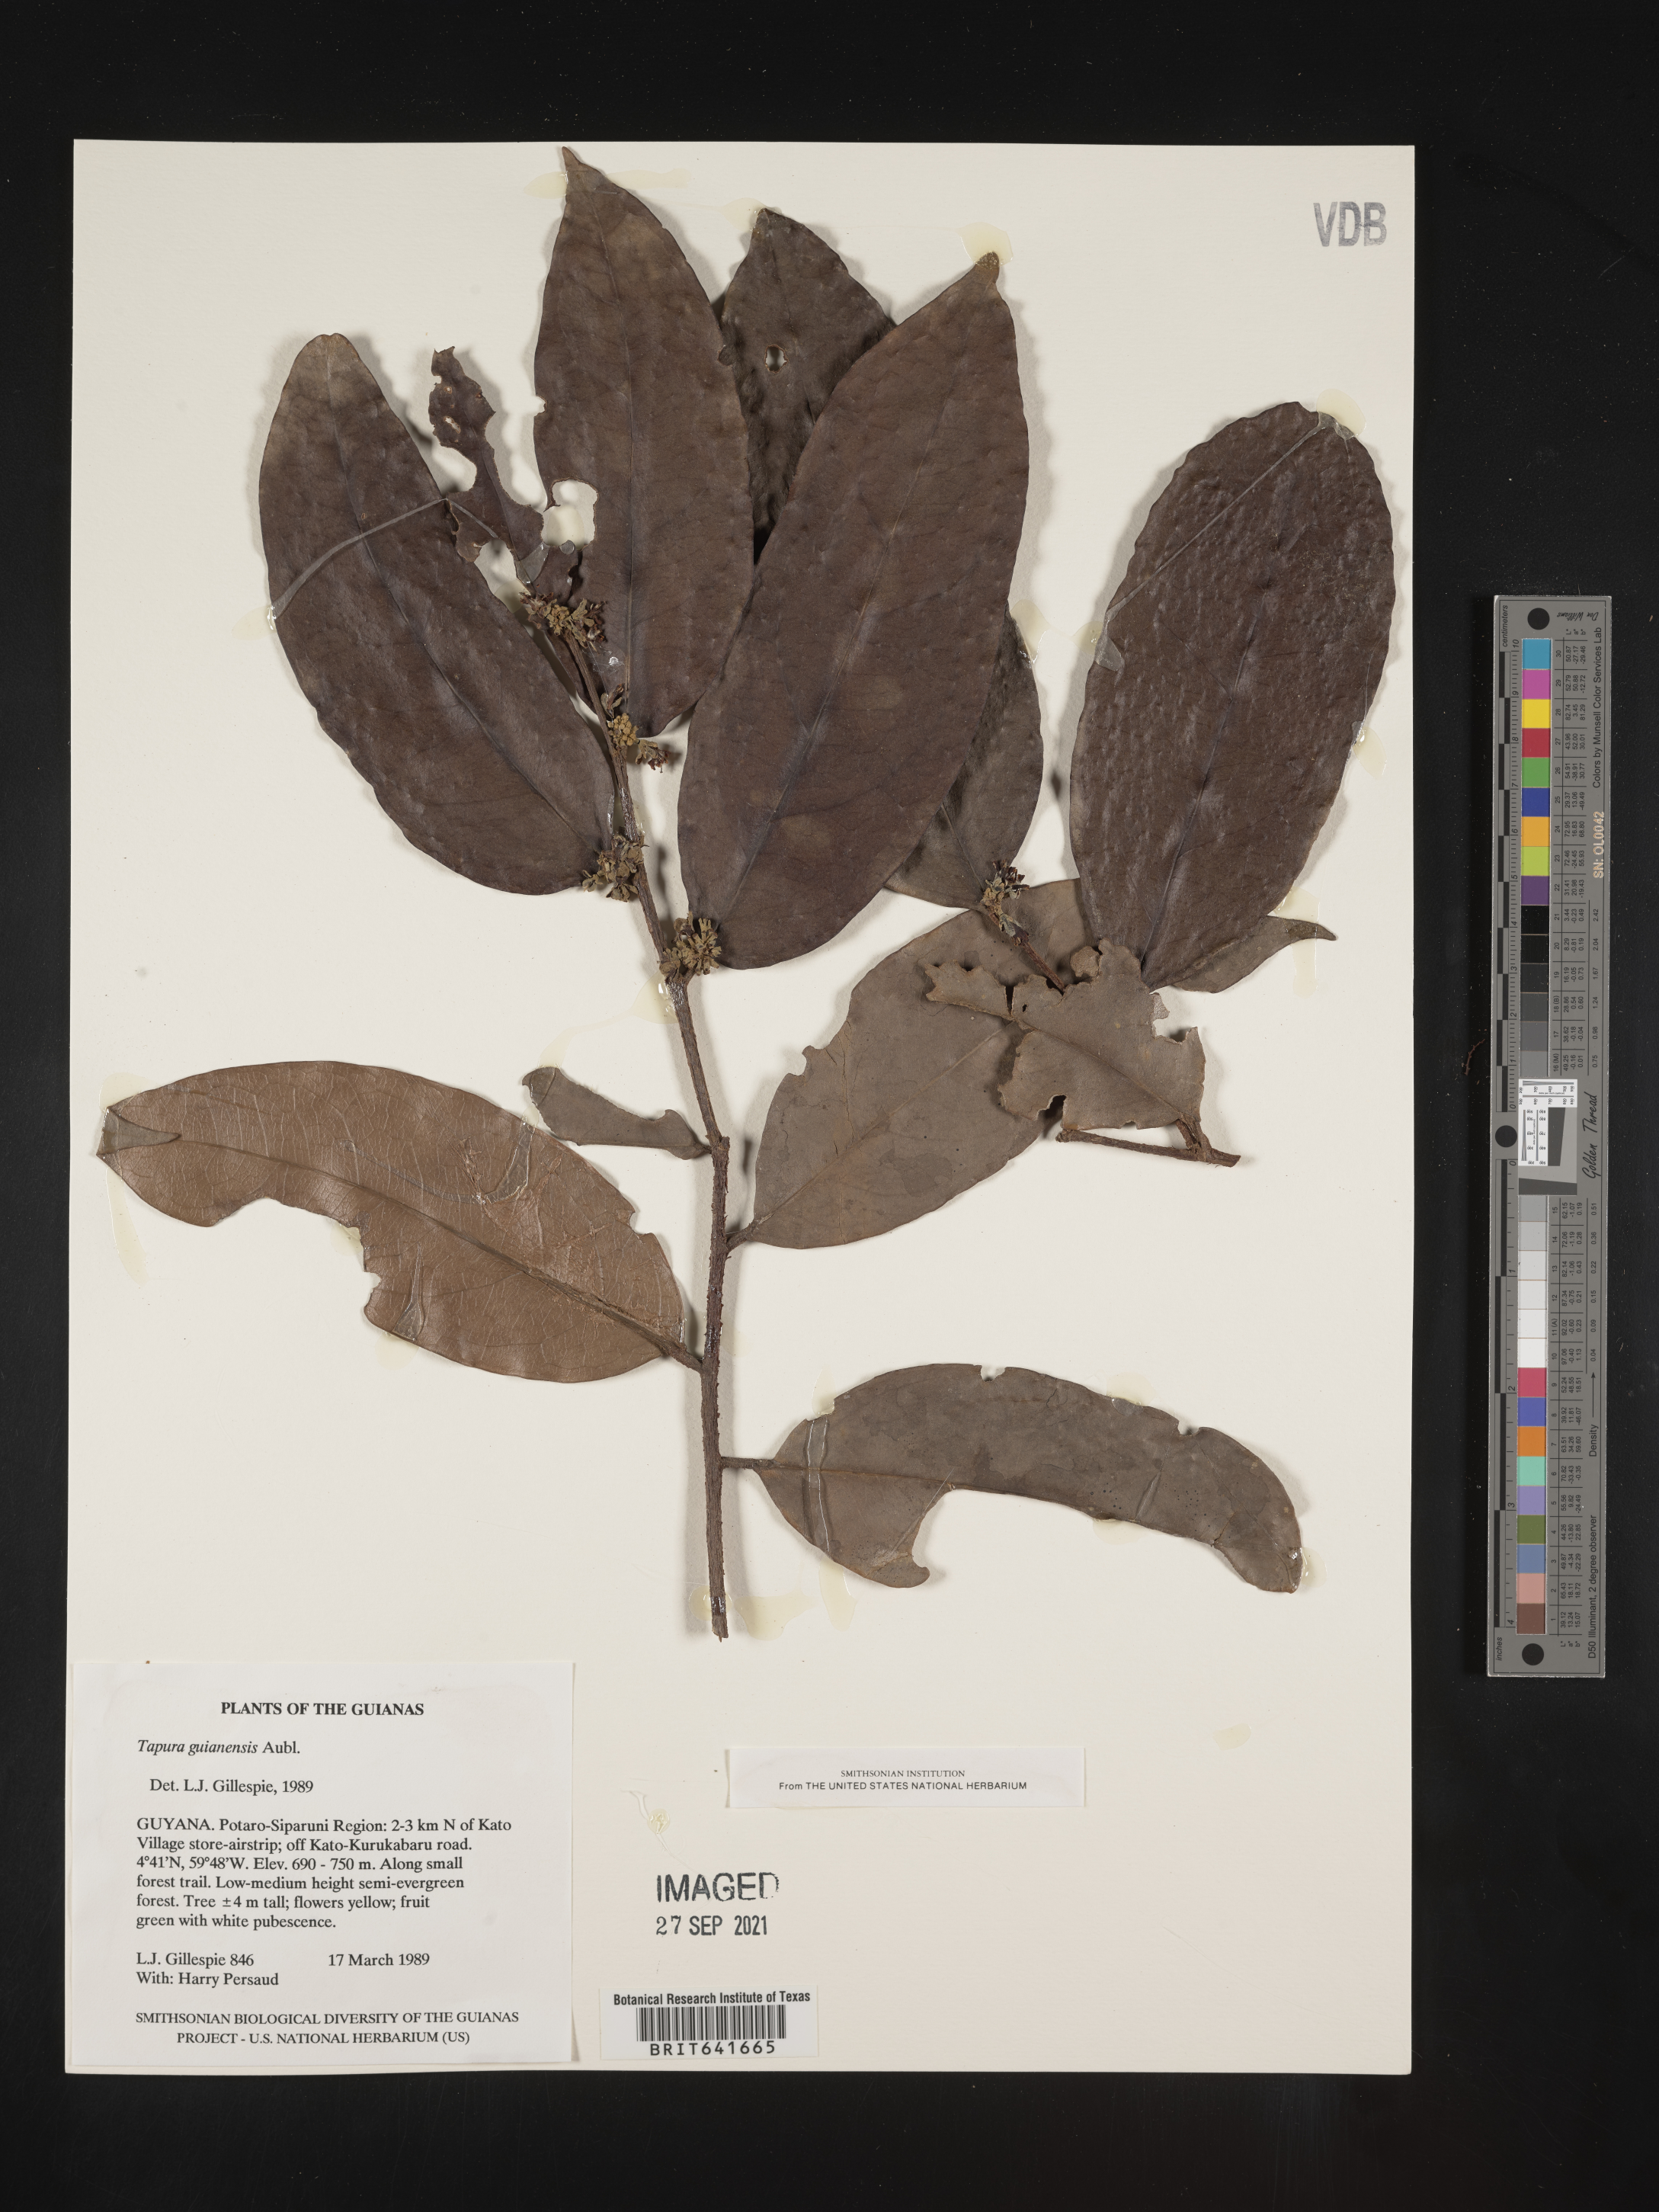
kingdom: Plantae
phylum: Tracheophyta
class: Magnoliopsida
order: Malpighiales
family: Dichapetalaceae
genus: Tapura
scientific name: Tapura
